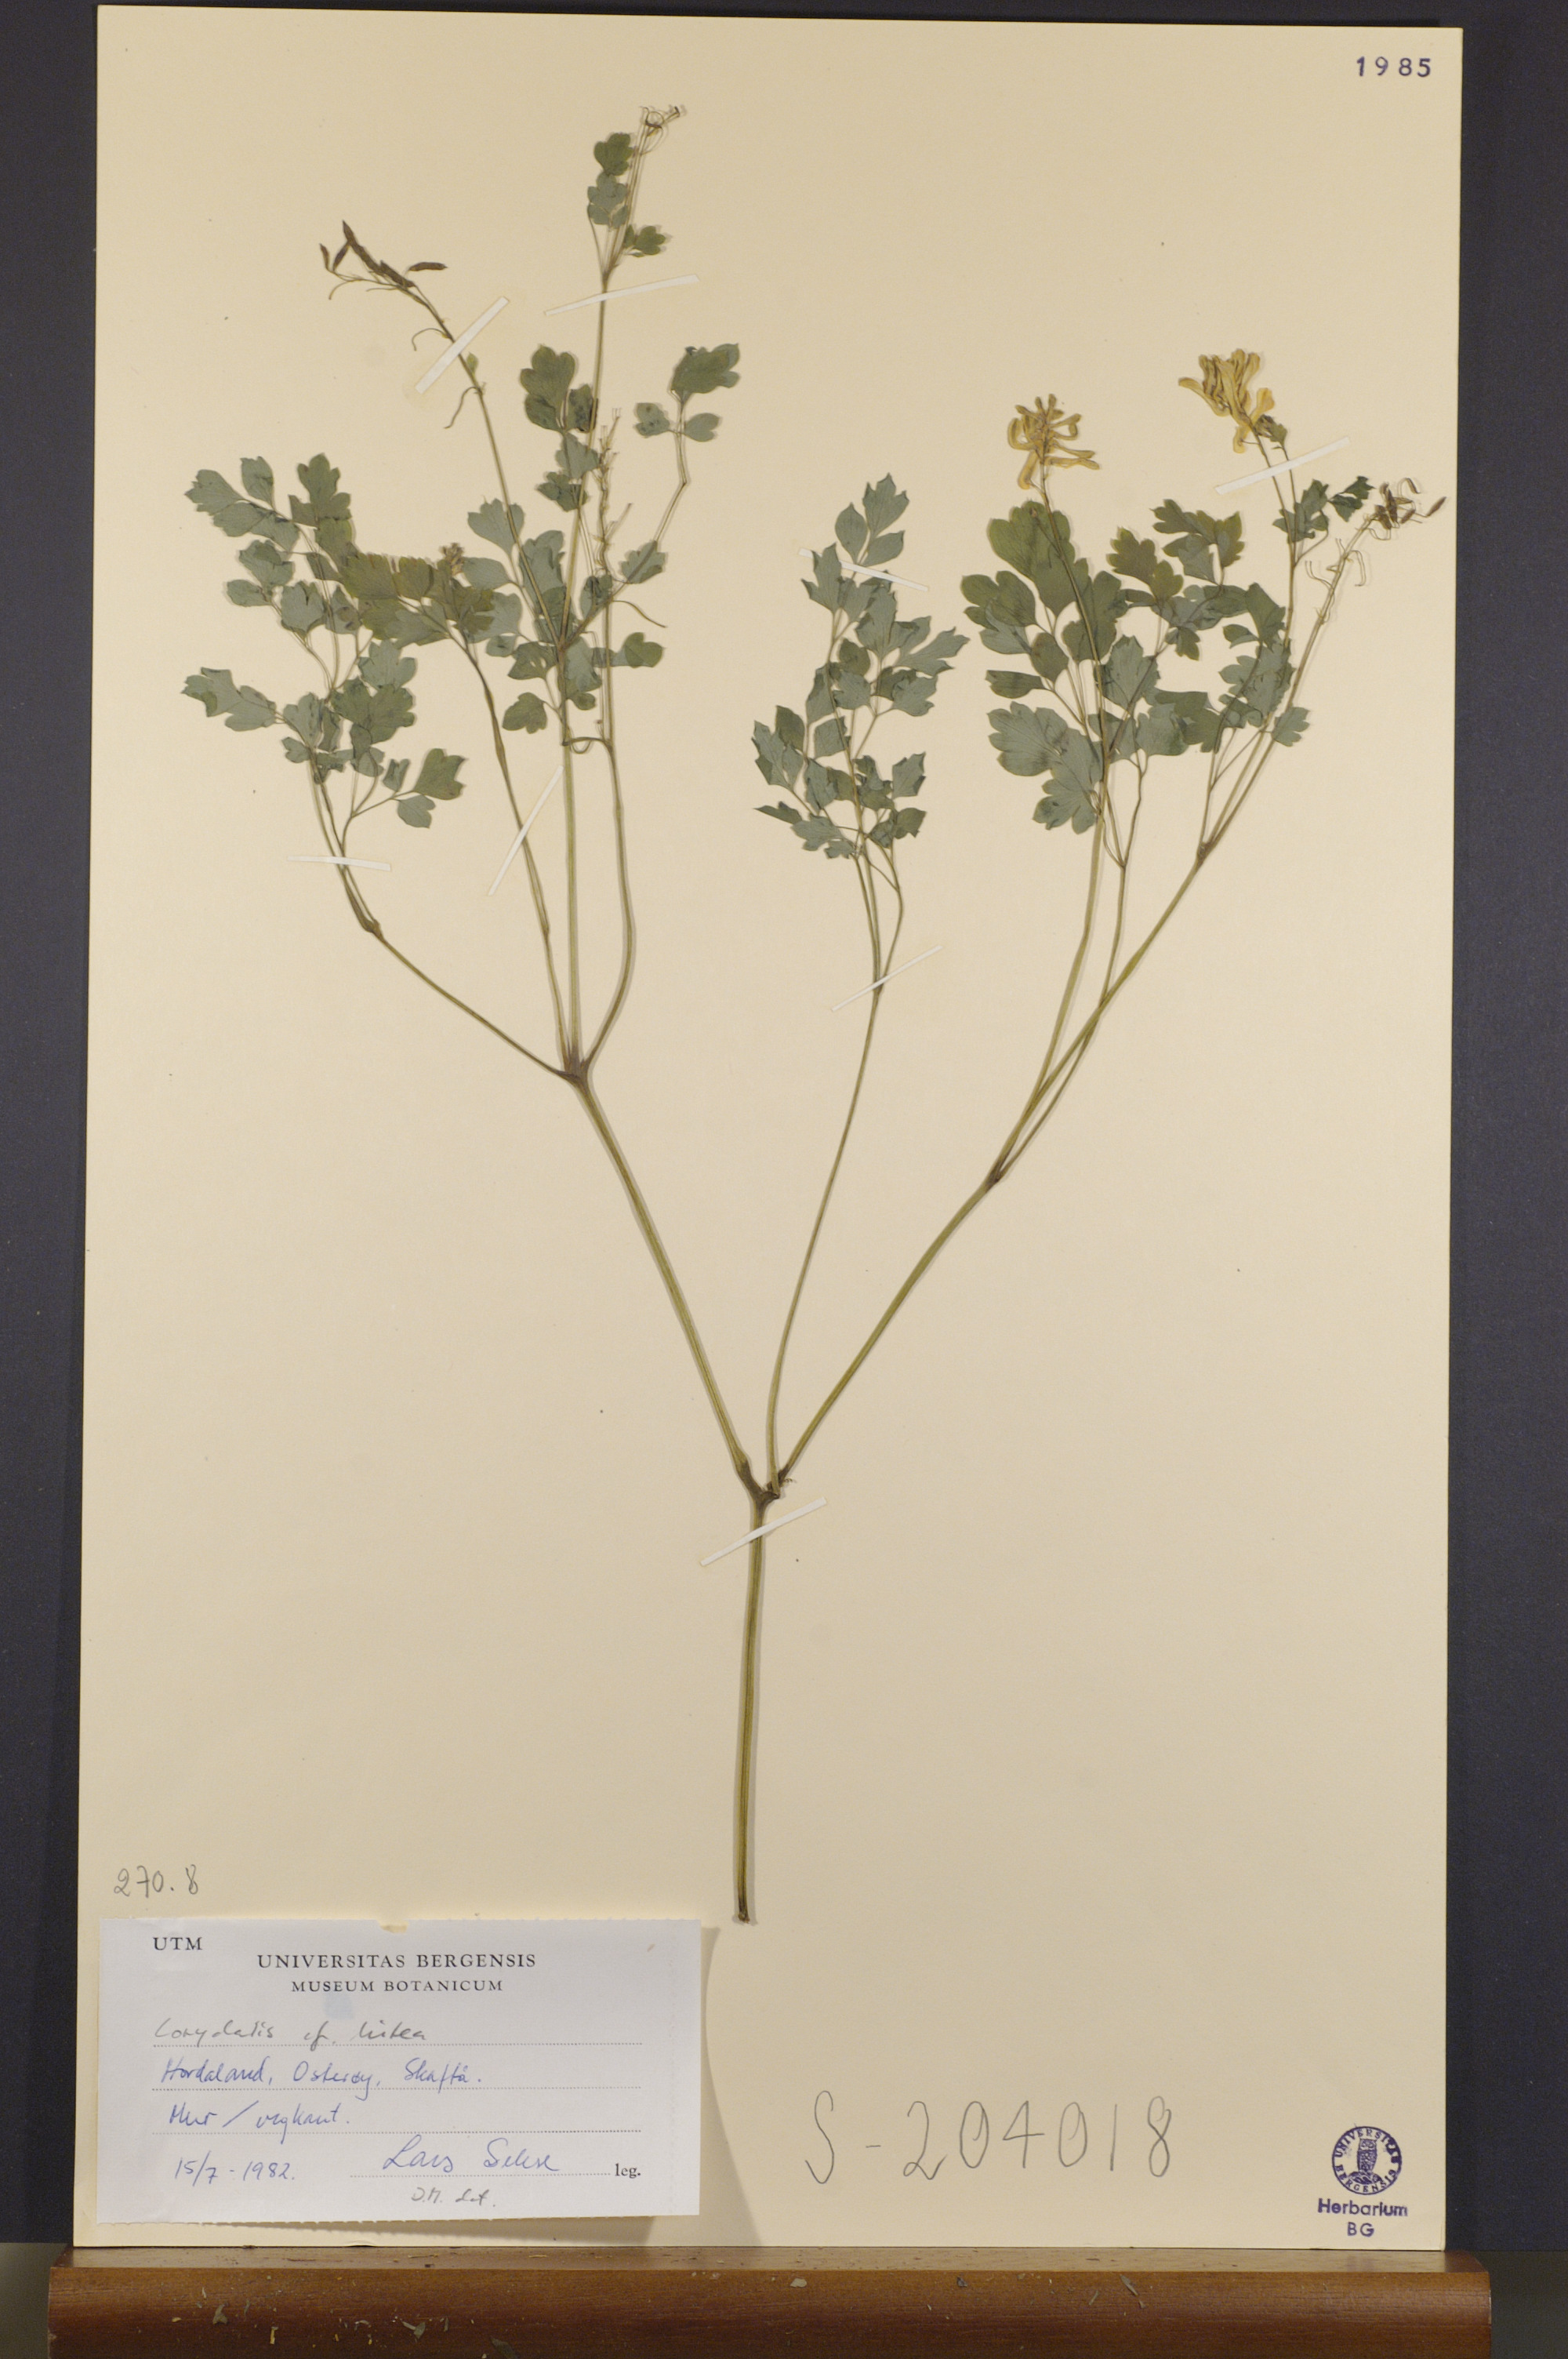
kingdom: Plantae
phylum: Tracheophyta
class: Magnoliopsida
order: Ranunculales
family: Papaveraceae
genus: Pseudofumaria
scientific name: Pseudofumaria lutea
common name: Yellow corydalis
